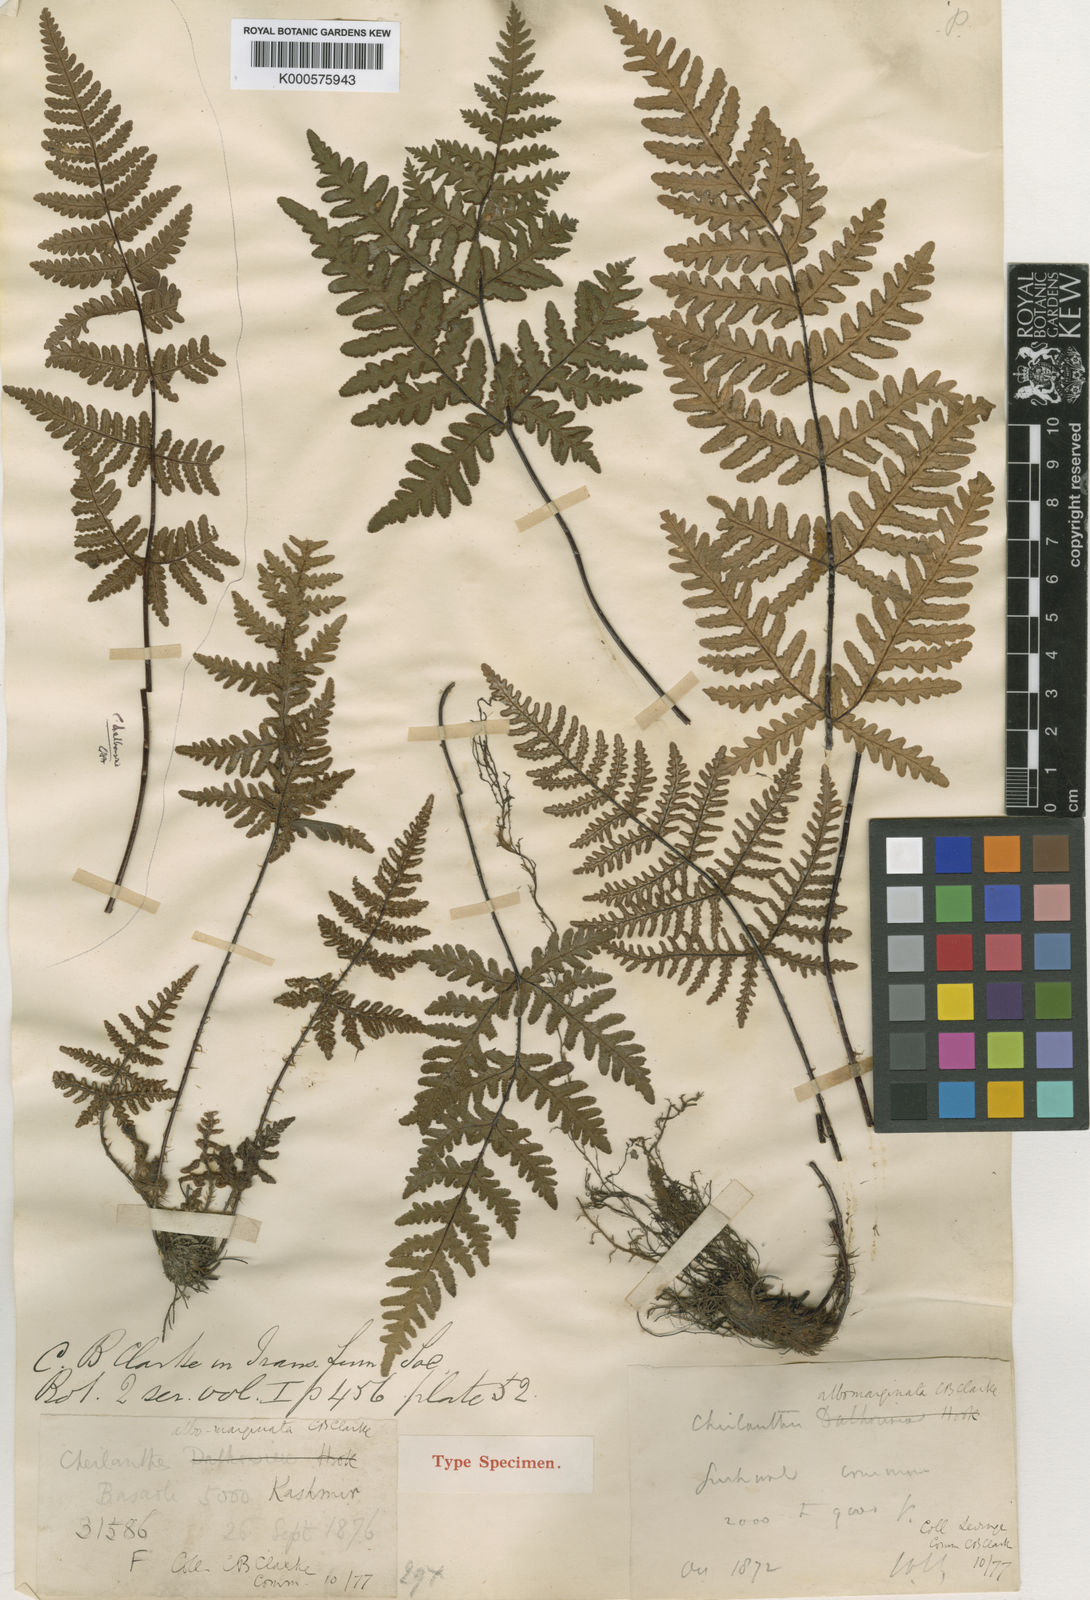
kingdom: Plantae
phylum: Tracheophyta
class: Polypodiopsida
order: Polypodiales
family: Pteridaceae
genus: Aleuritopteris
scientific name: Aleuritopteris albomarginata
